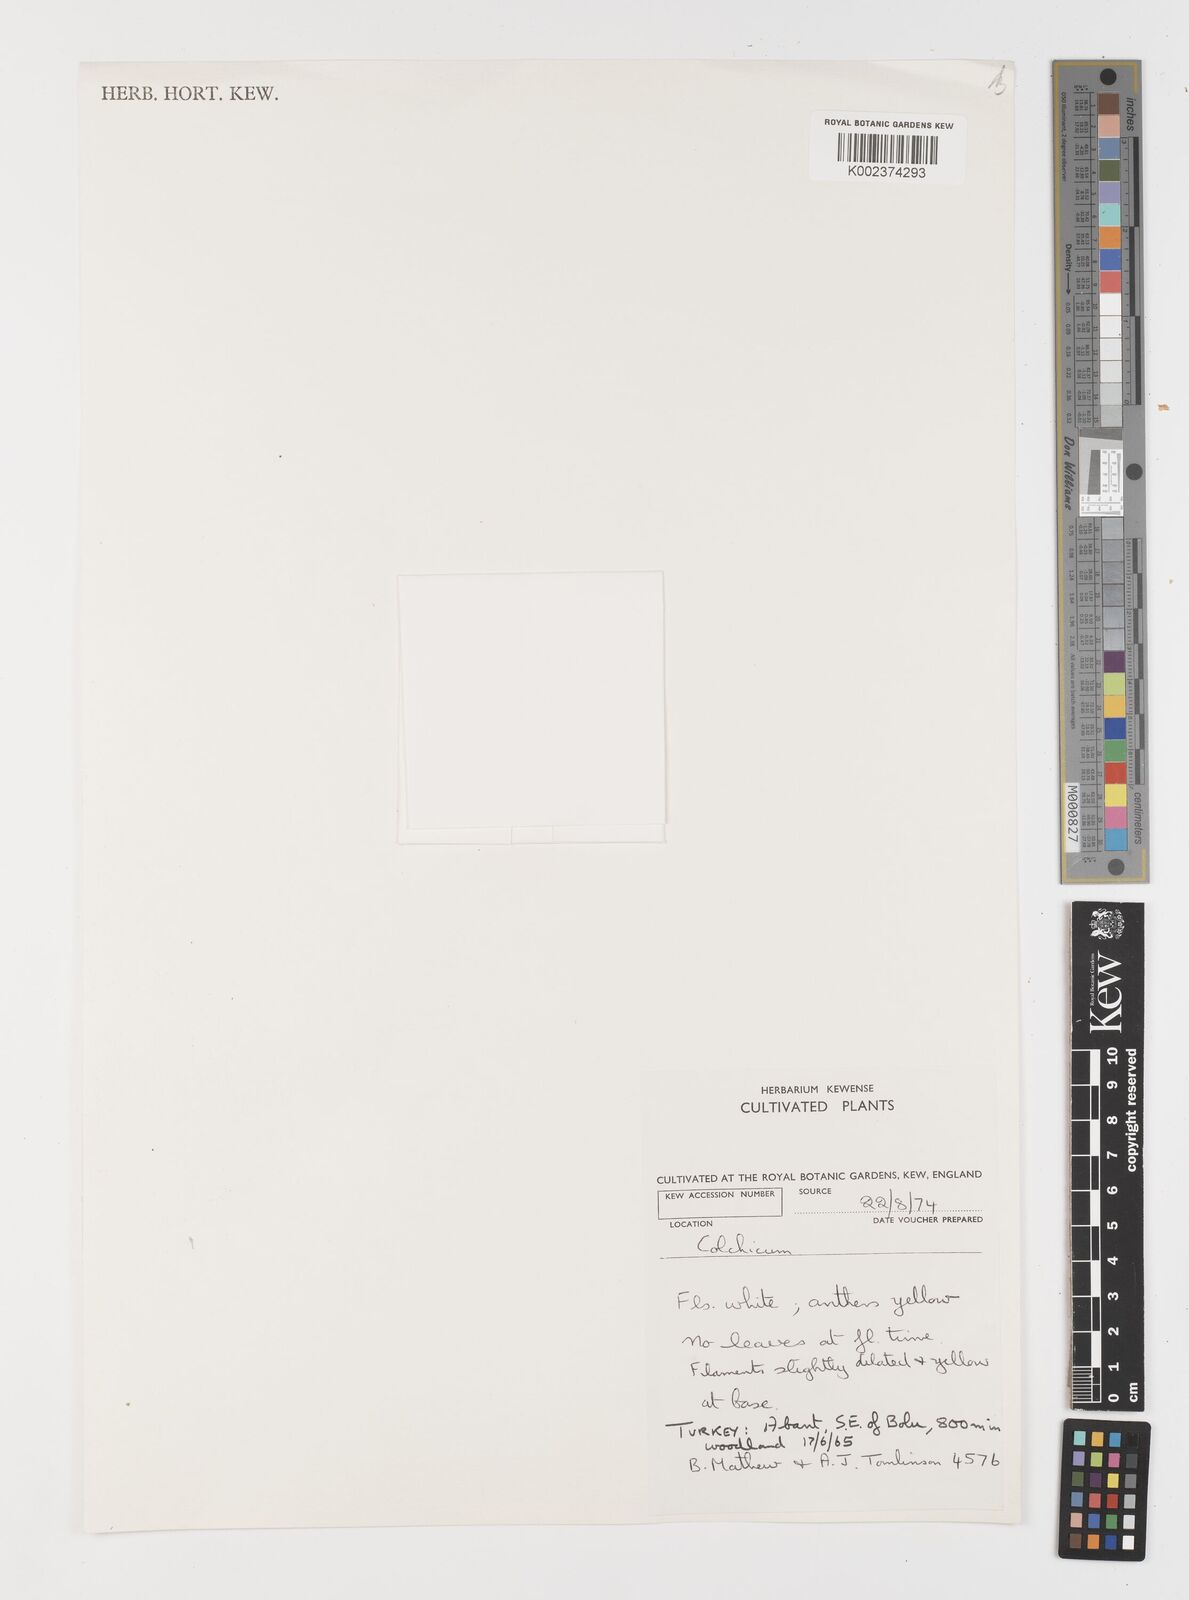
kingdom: Plantae
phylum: Tracheophyta
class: Liliopsida
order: Liliales
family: Colchicaceae
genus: Colchicum
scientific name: Colchicum
